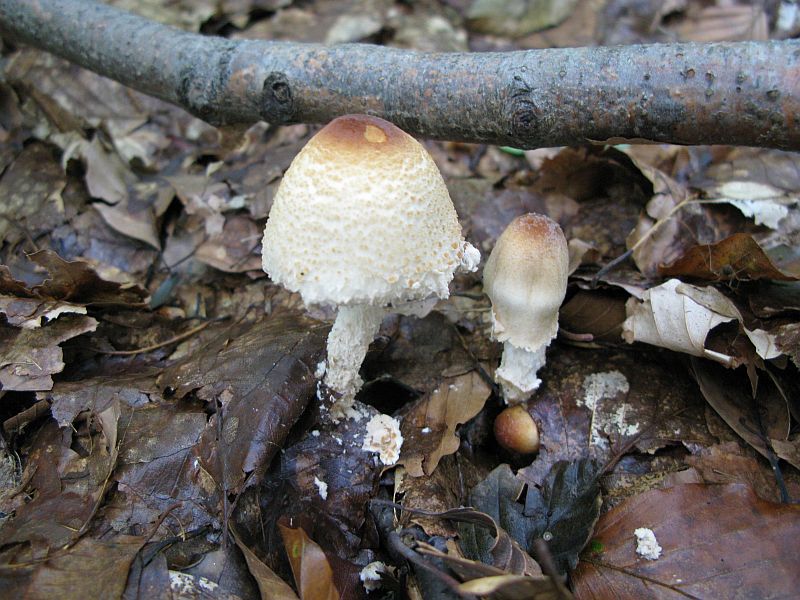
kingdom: Fungi
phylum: Basidiomycota
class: Agaricomycetes
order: Agaricales
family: Agaricaceae
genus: Lepiota
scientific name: Lepiota magnispora
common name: gulfnugget parasolhat
